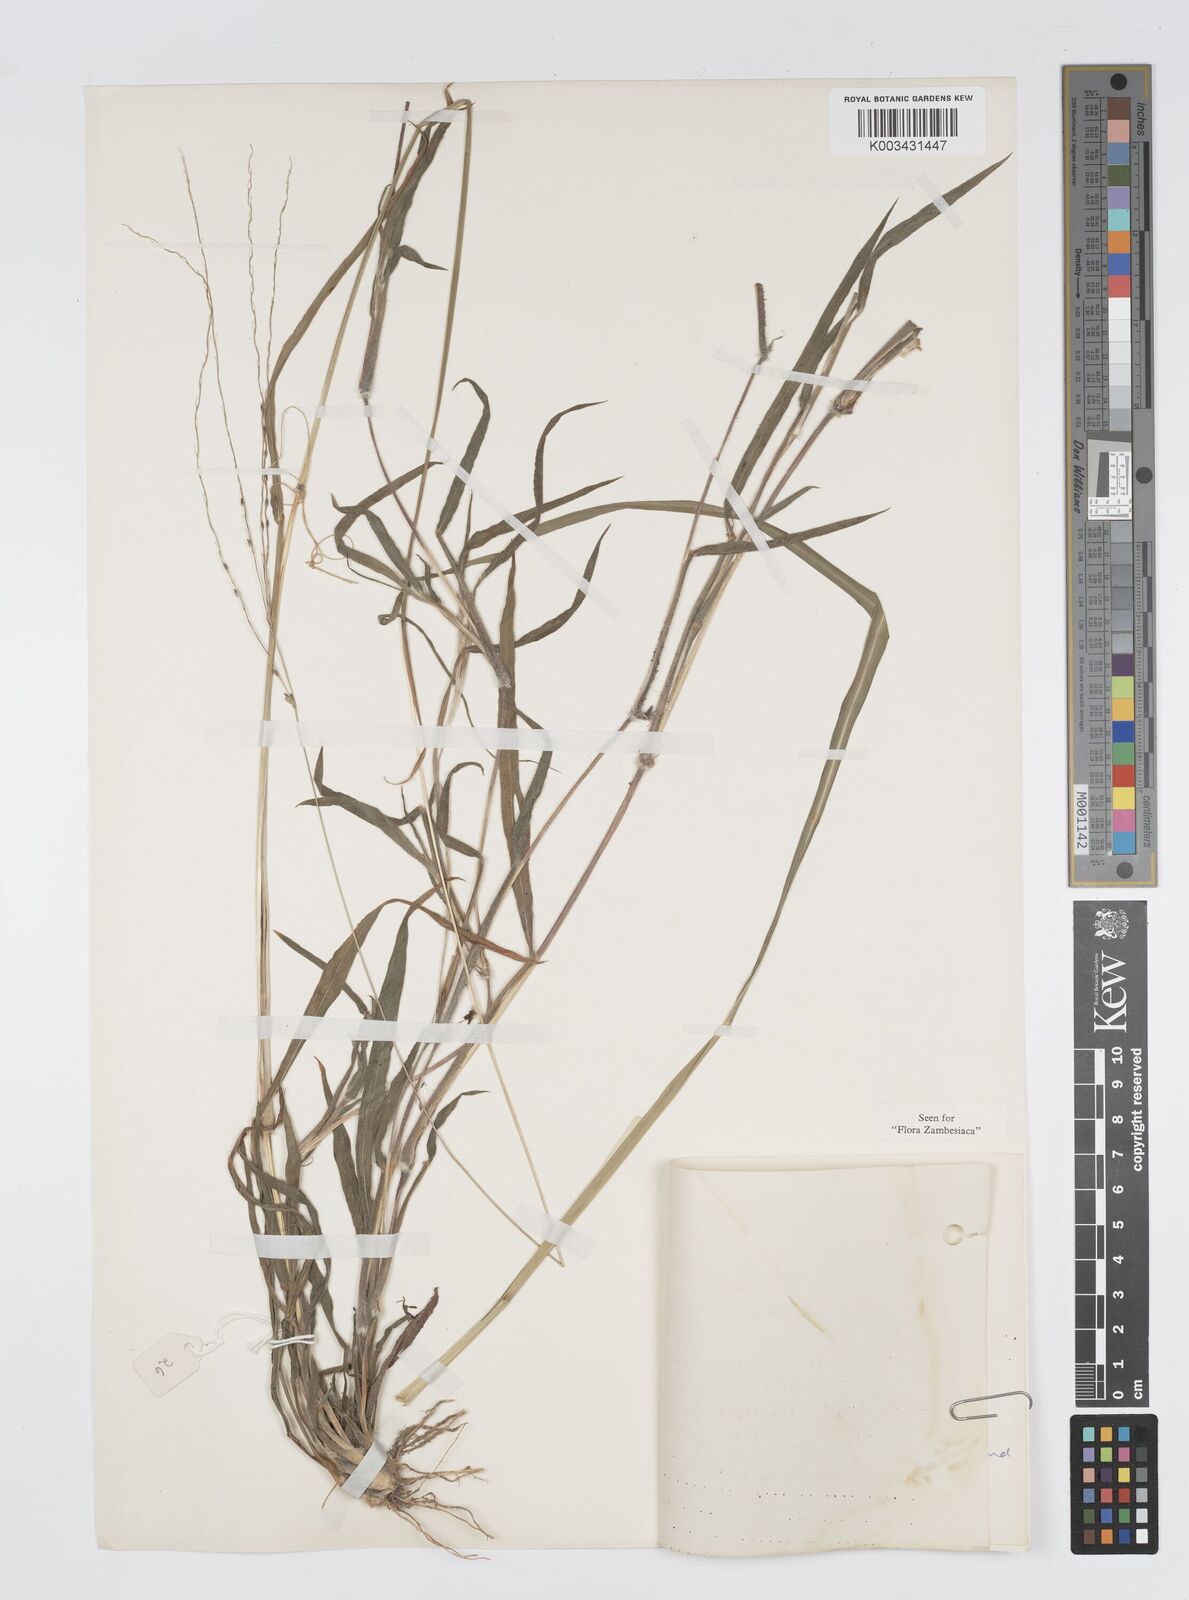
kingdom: Plantae
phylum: Tracheophyta
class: Liliopsida
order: Poales
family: Poaceae
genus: Digitaria
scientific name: Digitaria gazensis
